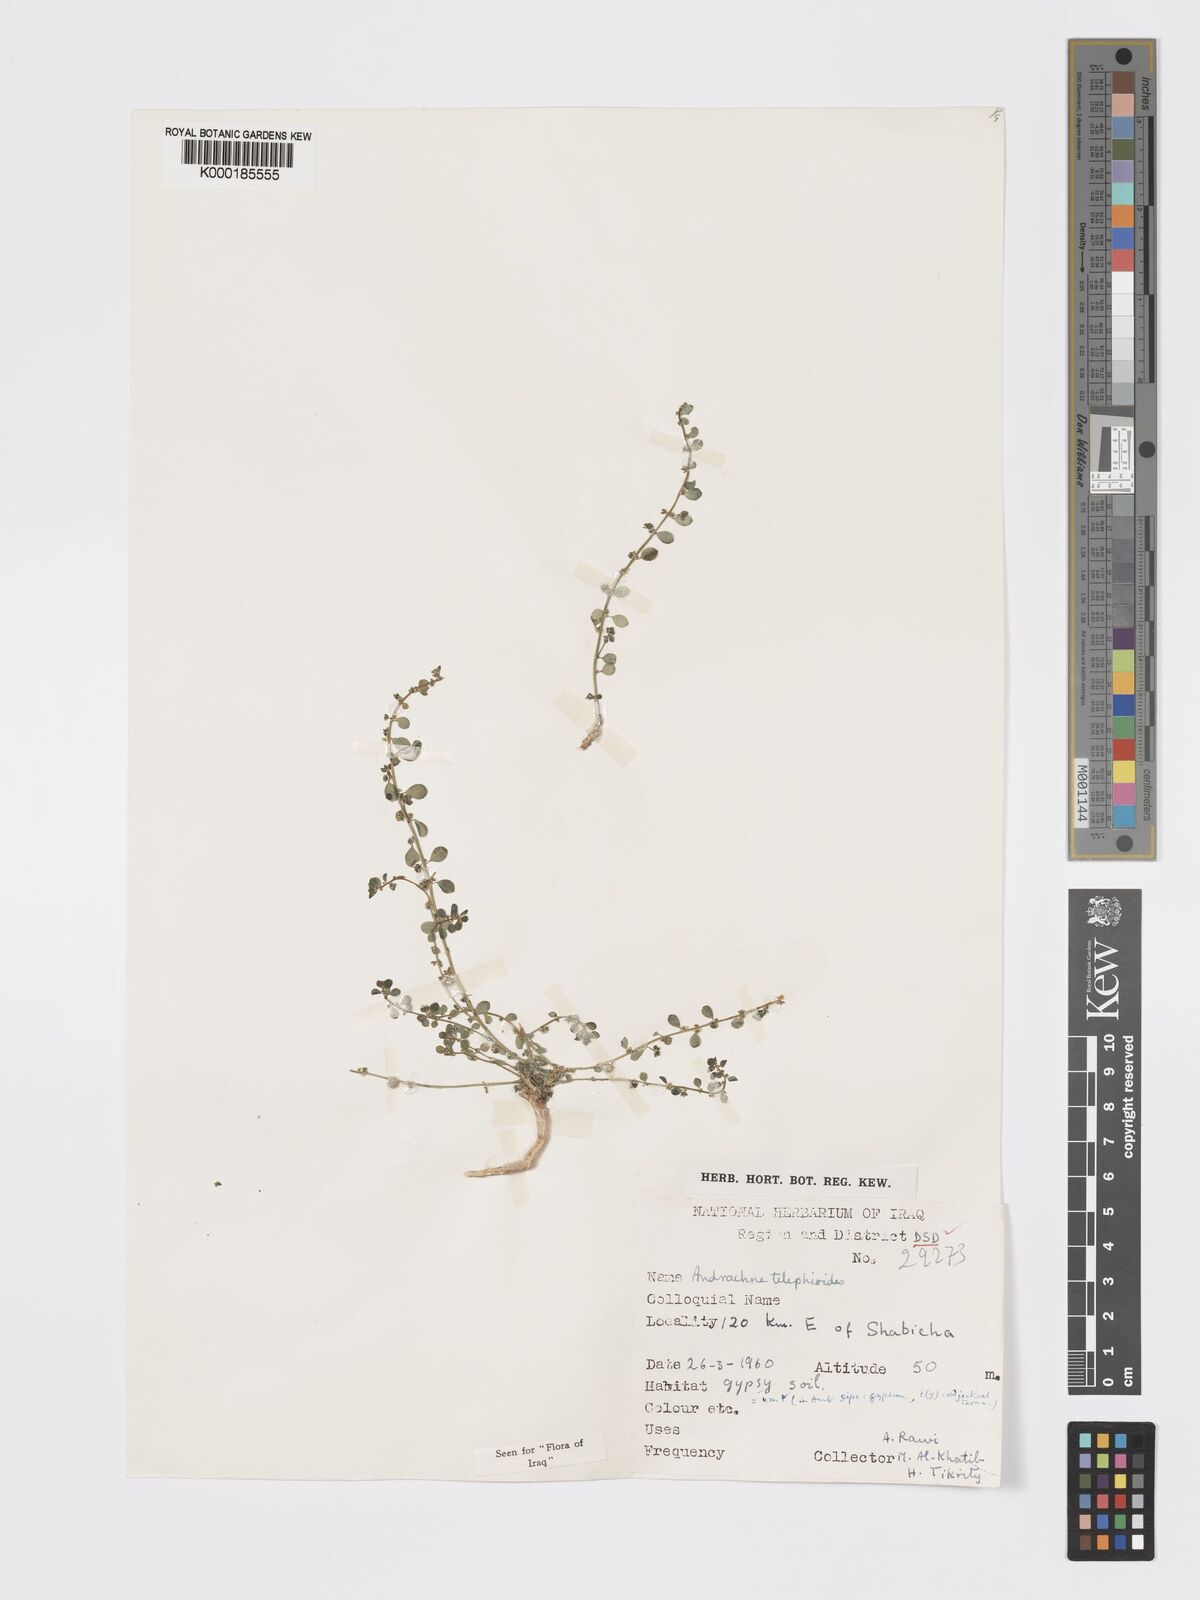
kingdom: Plantae
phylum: Tracheophyta
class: Magnoliopsida
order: Malpighiales
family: Phyllanthaceae
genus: Andrachne
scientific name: Andrachne telephioides
